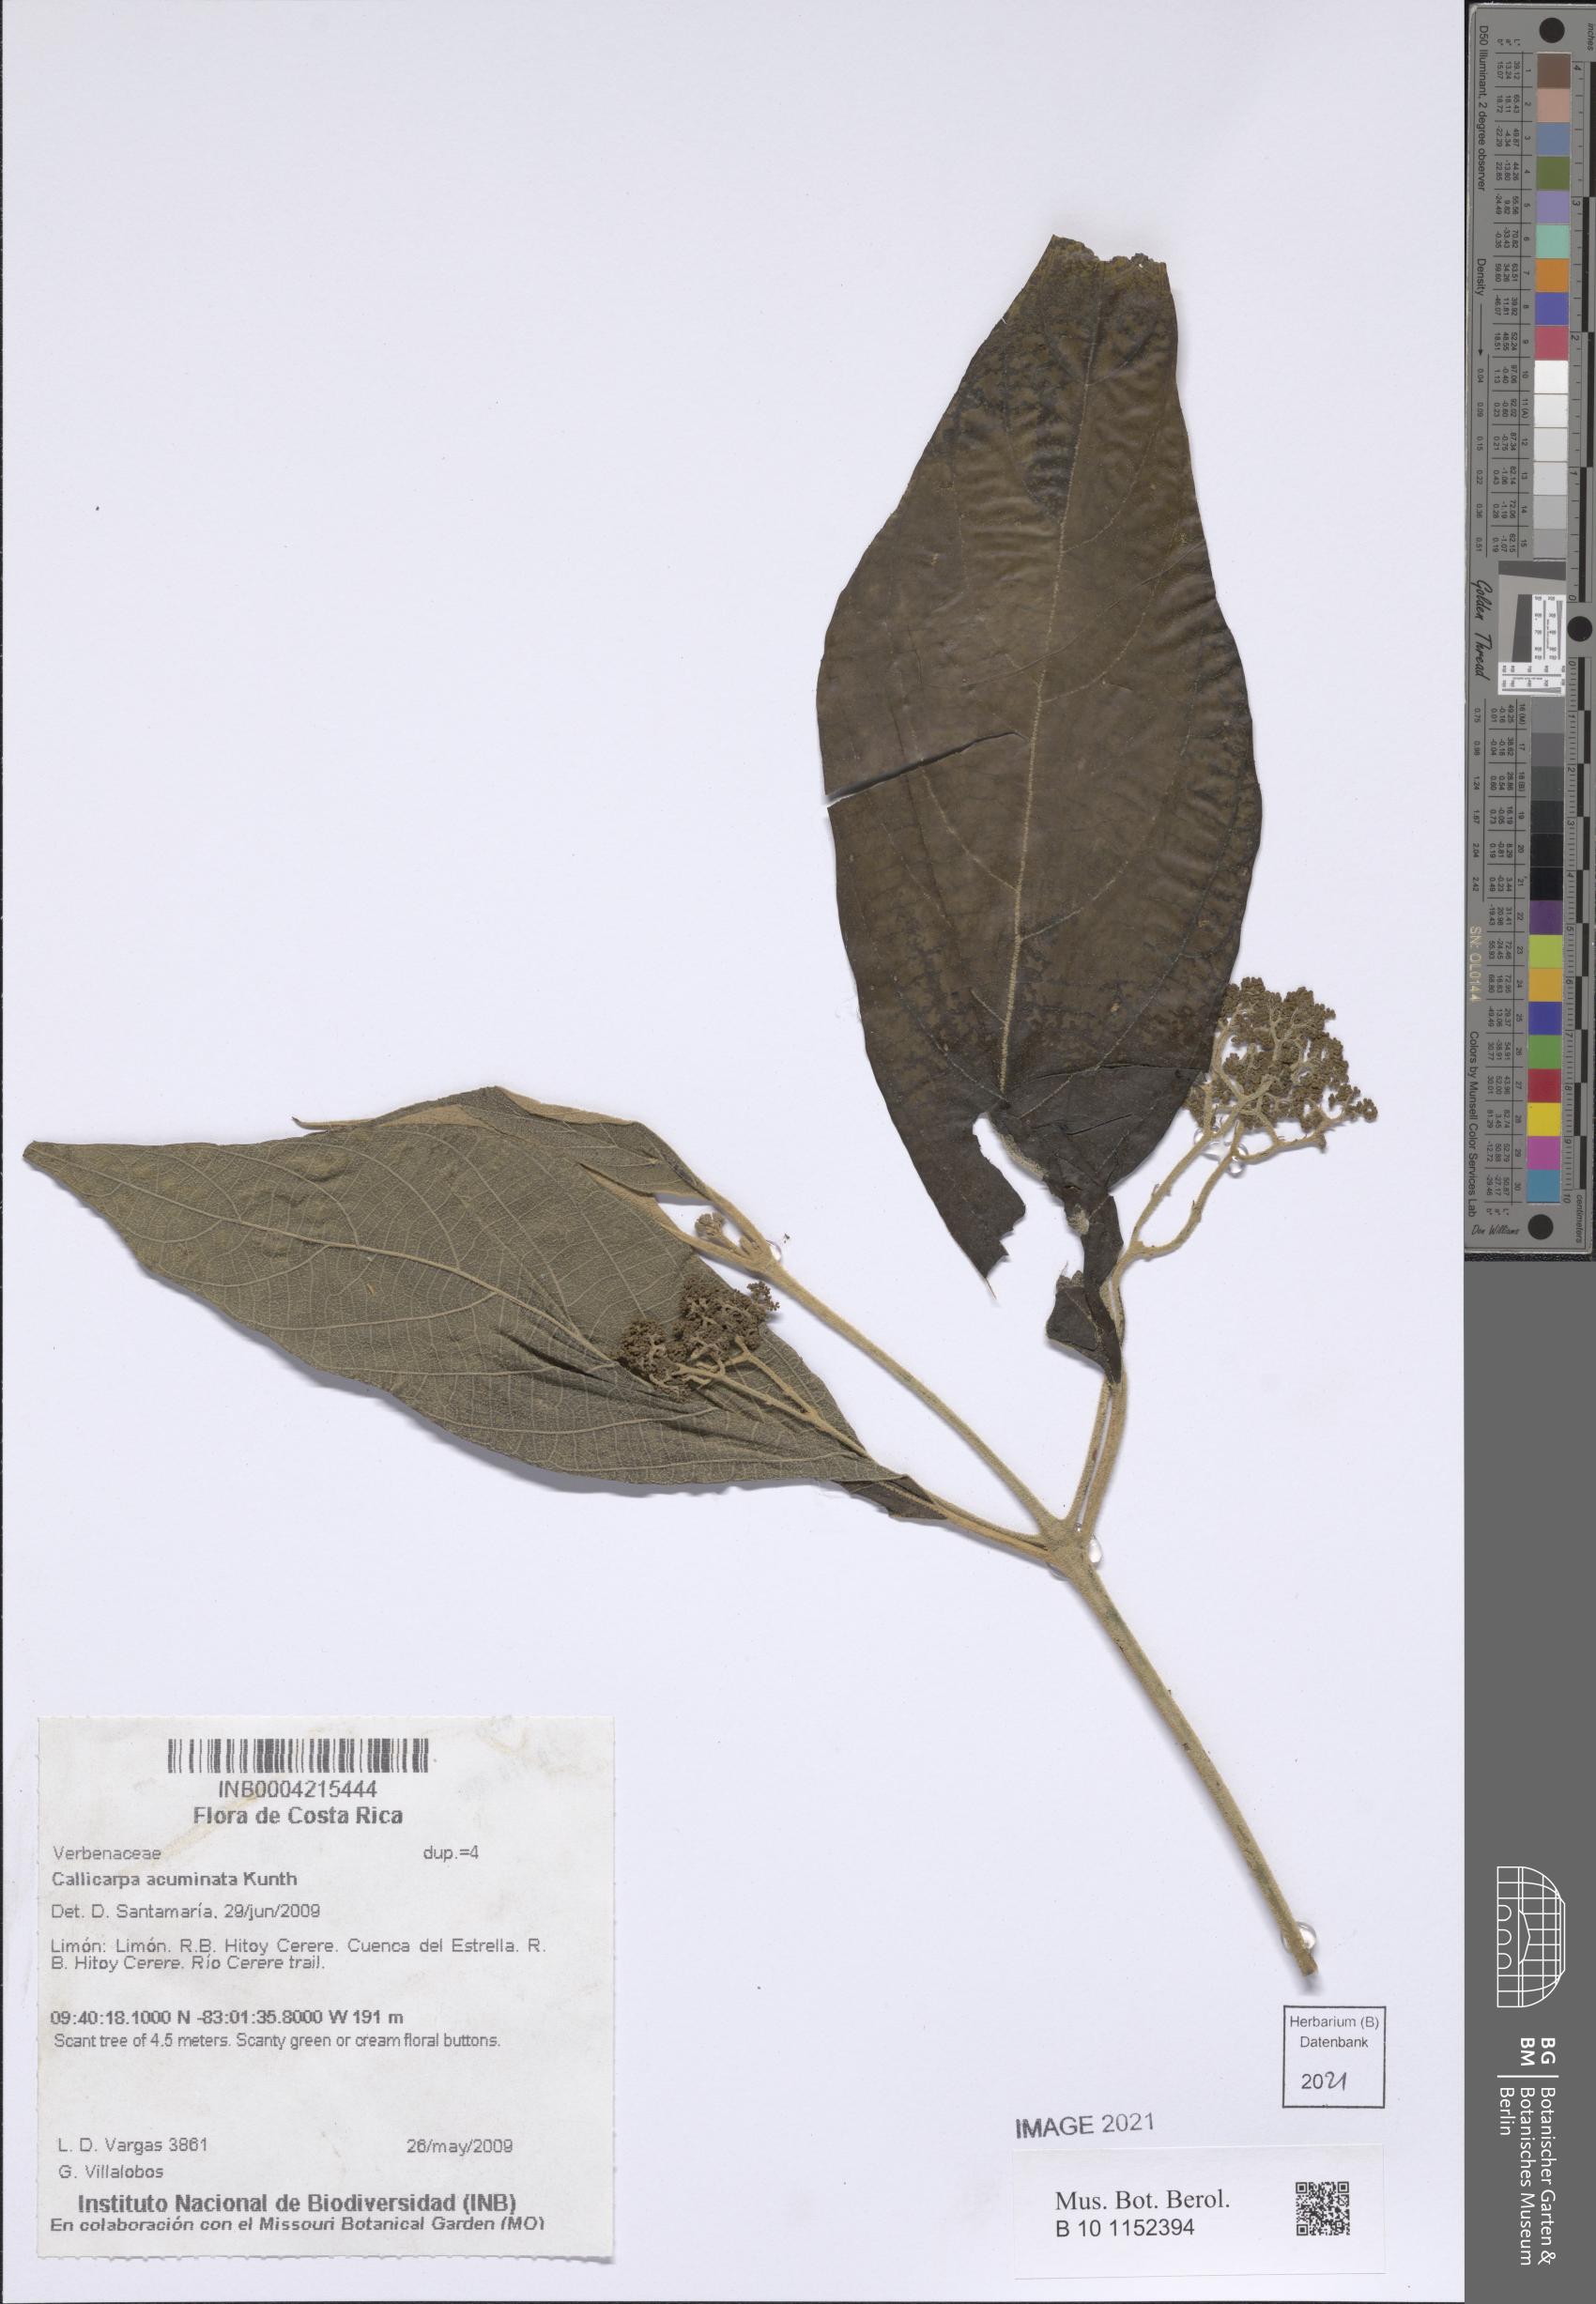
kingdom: Plantae
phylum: Tracheophyta
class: Magnoliopsida
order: Lamiales
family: Lamiaceae
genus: Callicarpa
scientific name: Callicarpa acuminata
